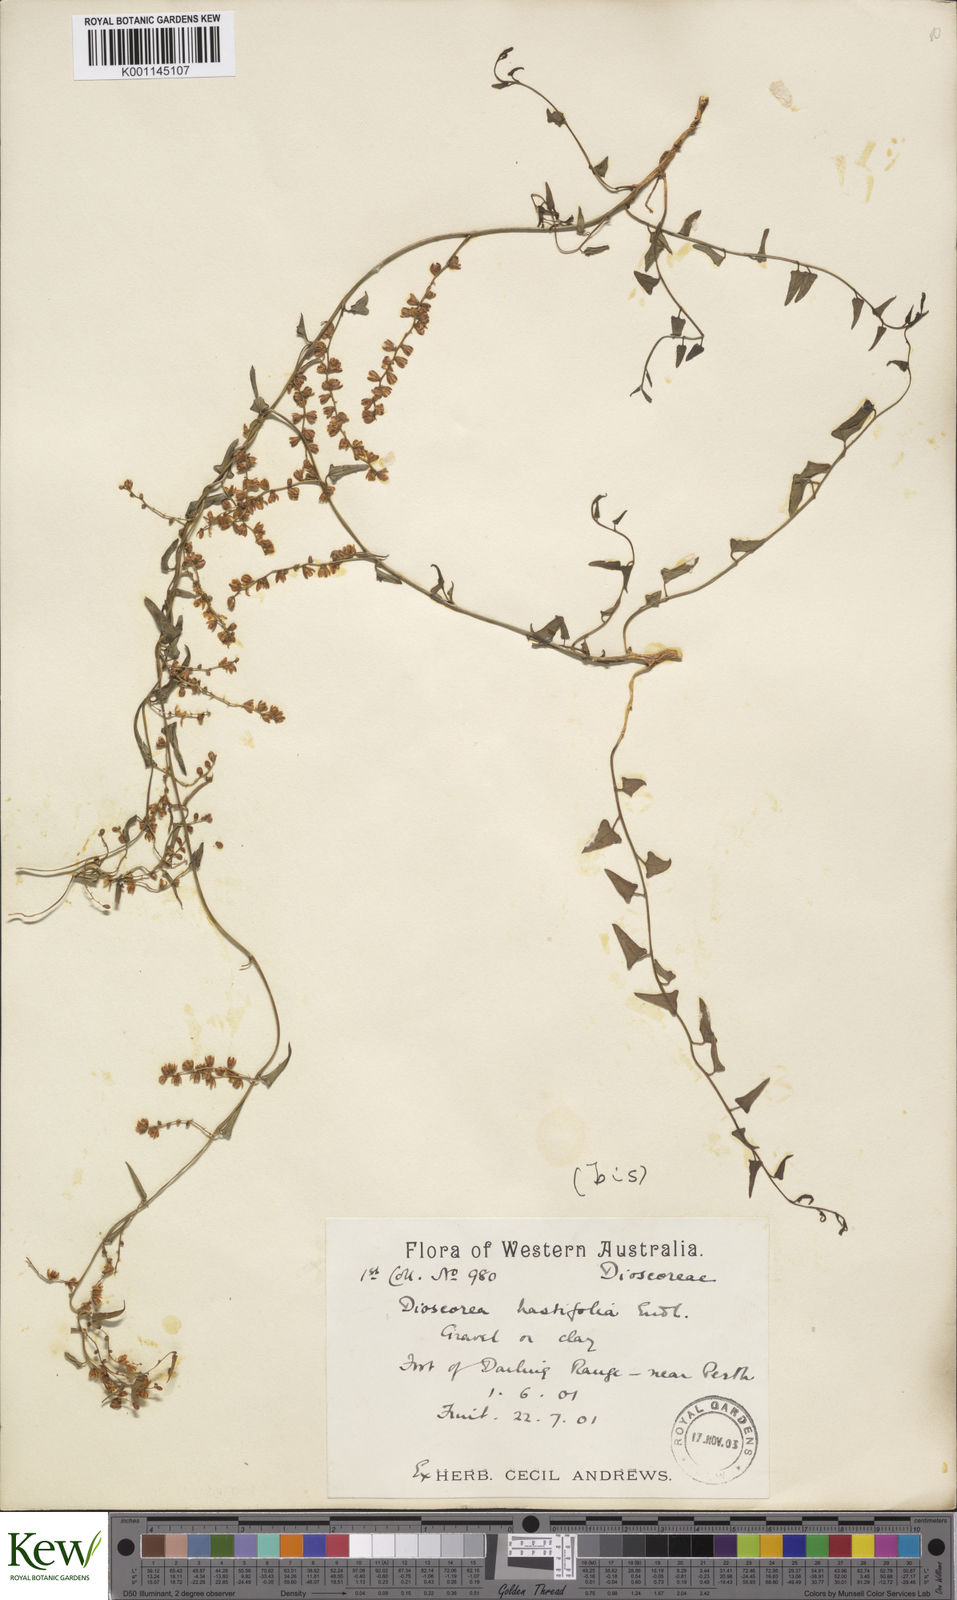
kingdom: Plantae
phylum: Tracheophyta
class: Liliopsida
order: Dioscoreales
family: Dioscoreaceae
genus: Dioscorea
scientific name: Dioscorea hastifolia
